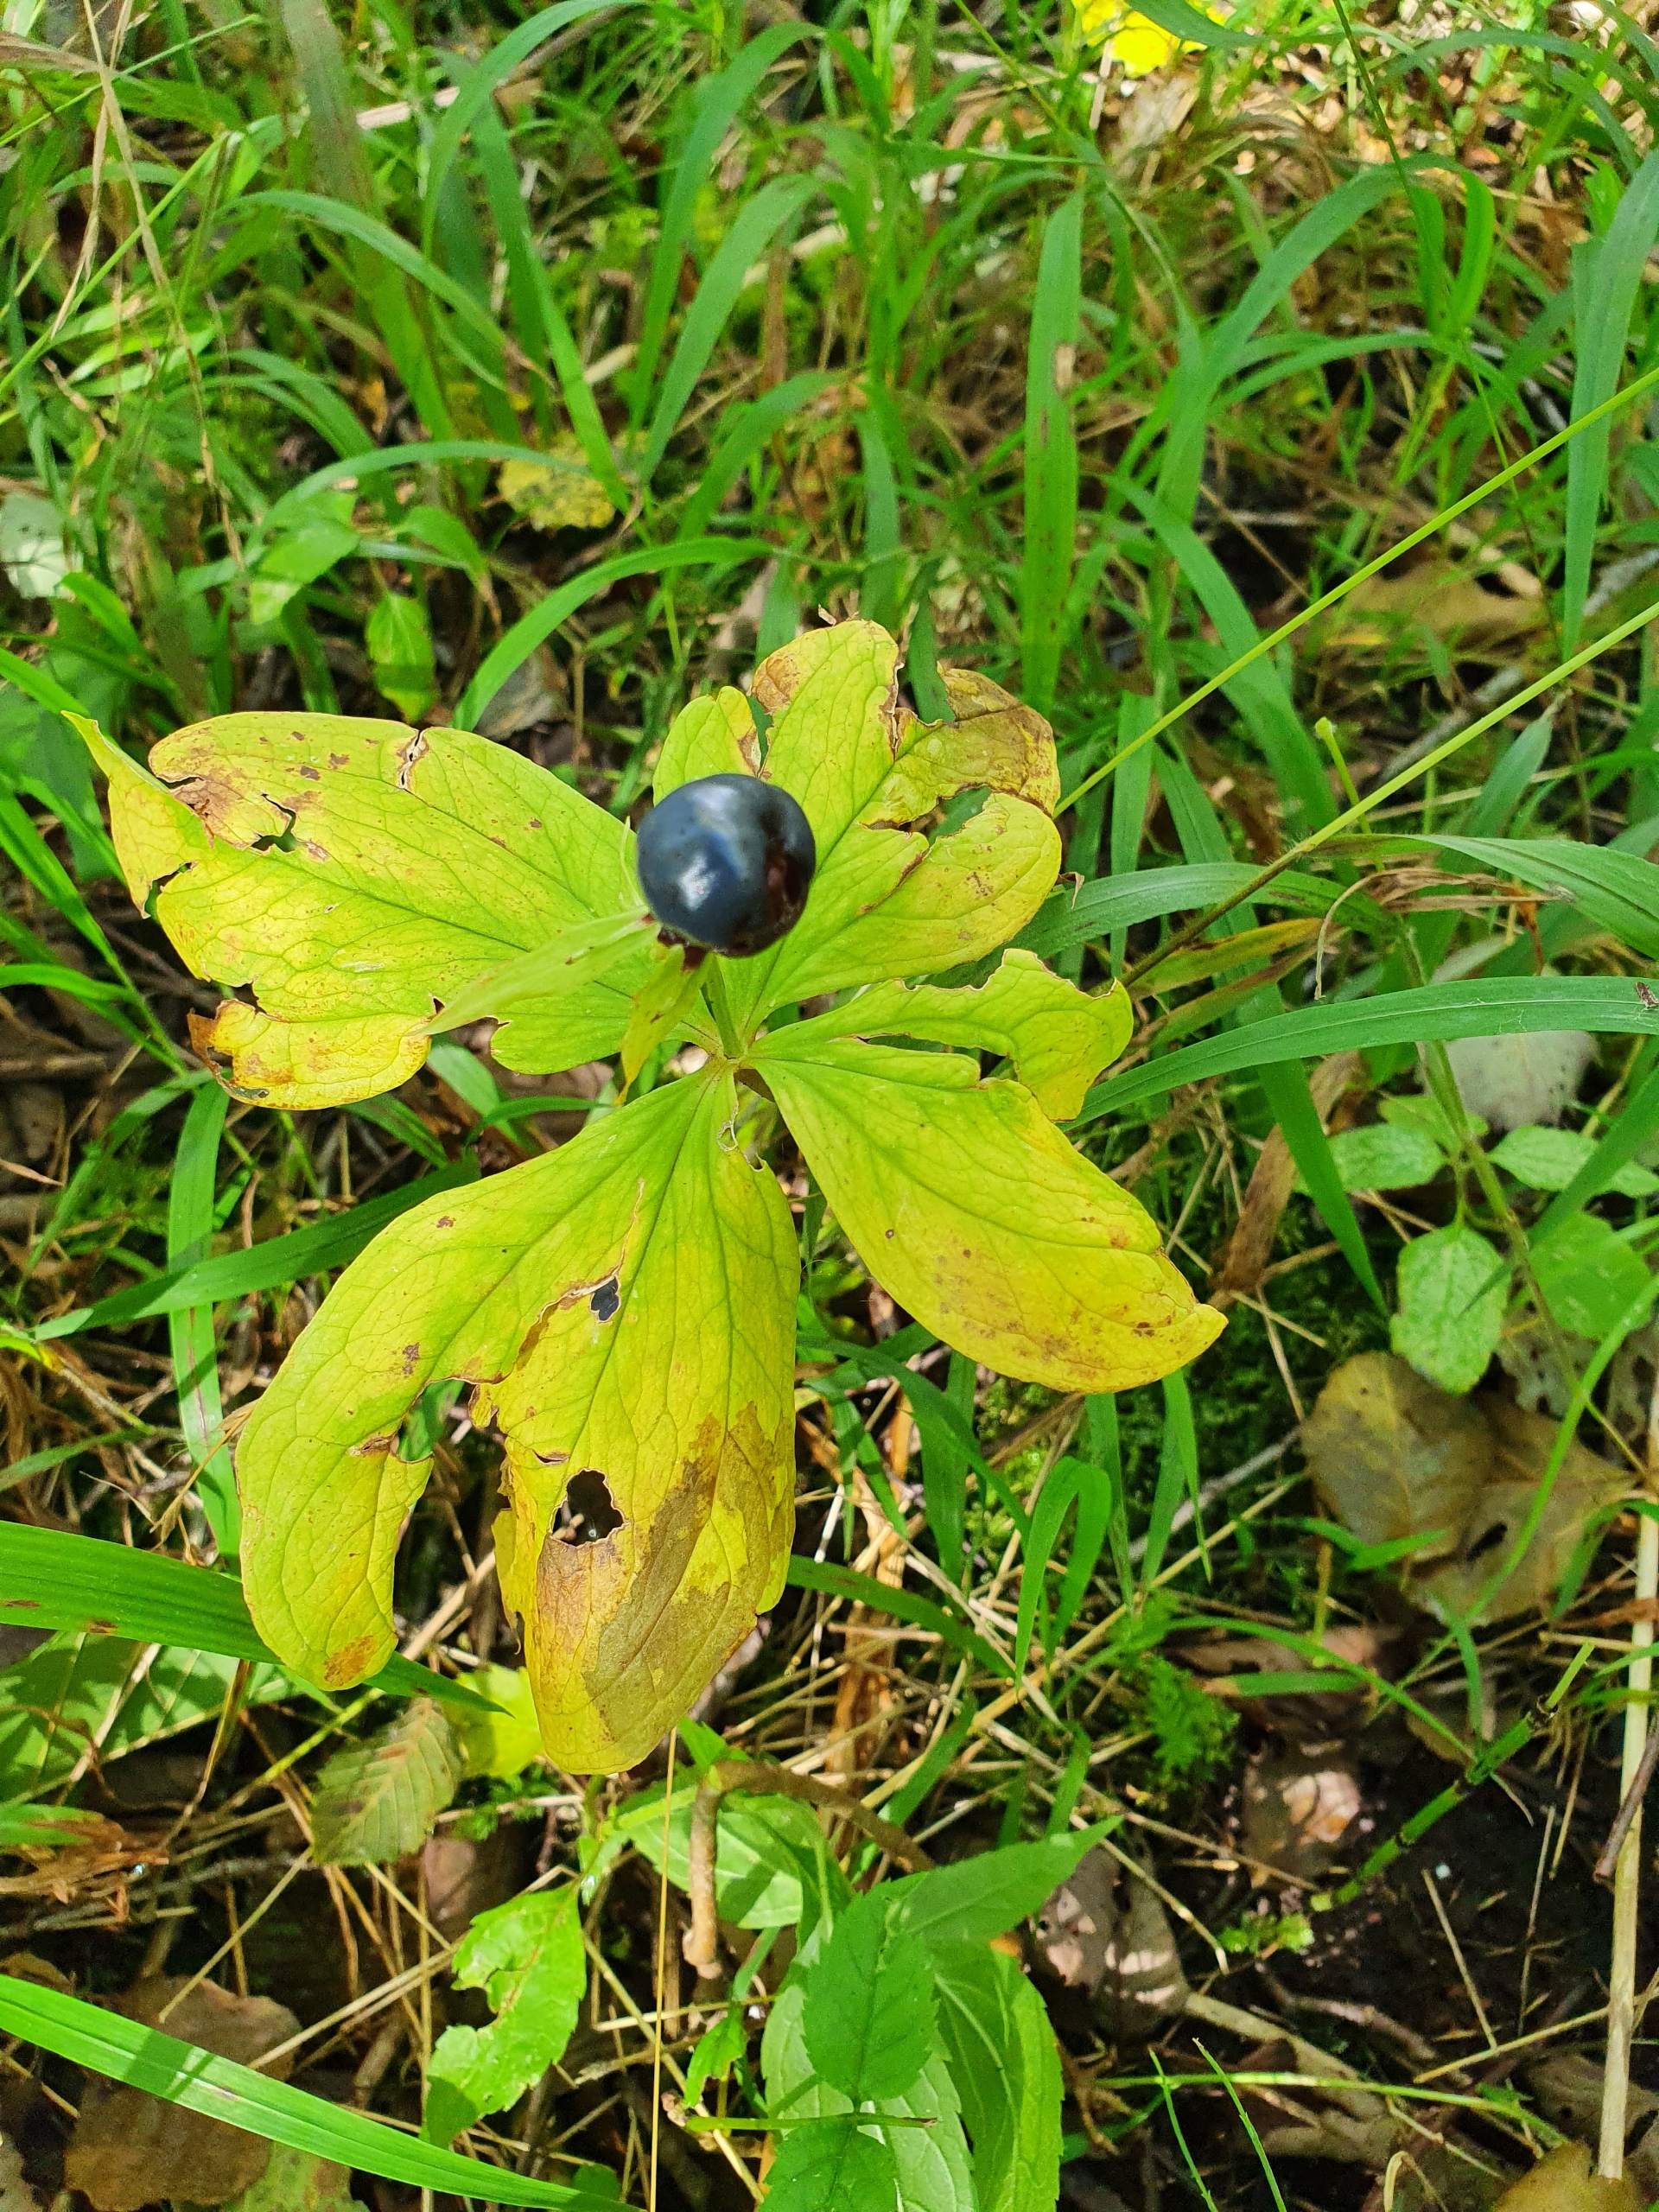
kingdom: Plantae
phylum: Tracheophyta
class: Liliopsida
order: Liliales
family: Melanthiaceae
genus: Paris
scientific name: Paris quadrifolia
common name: Firblad
